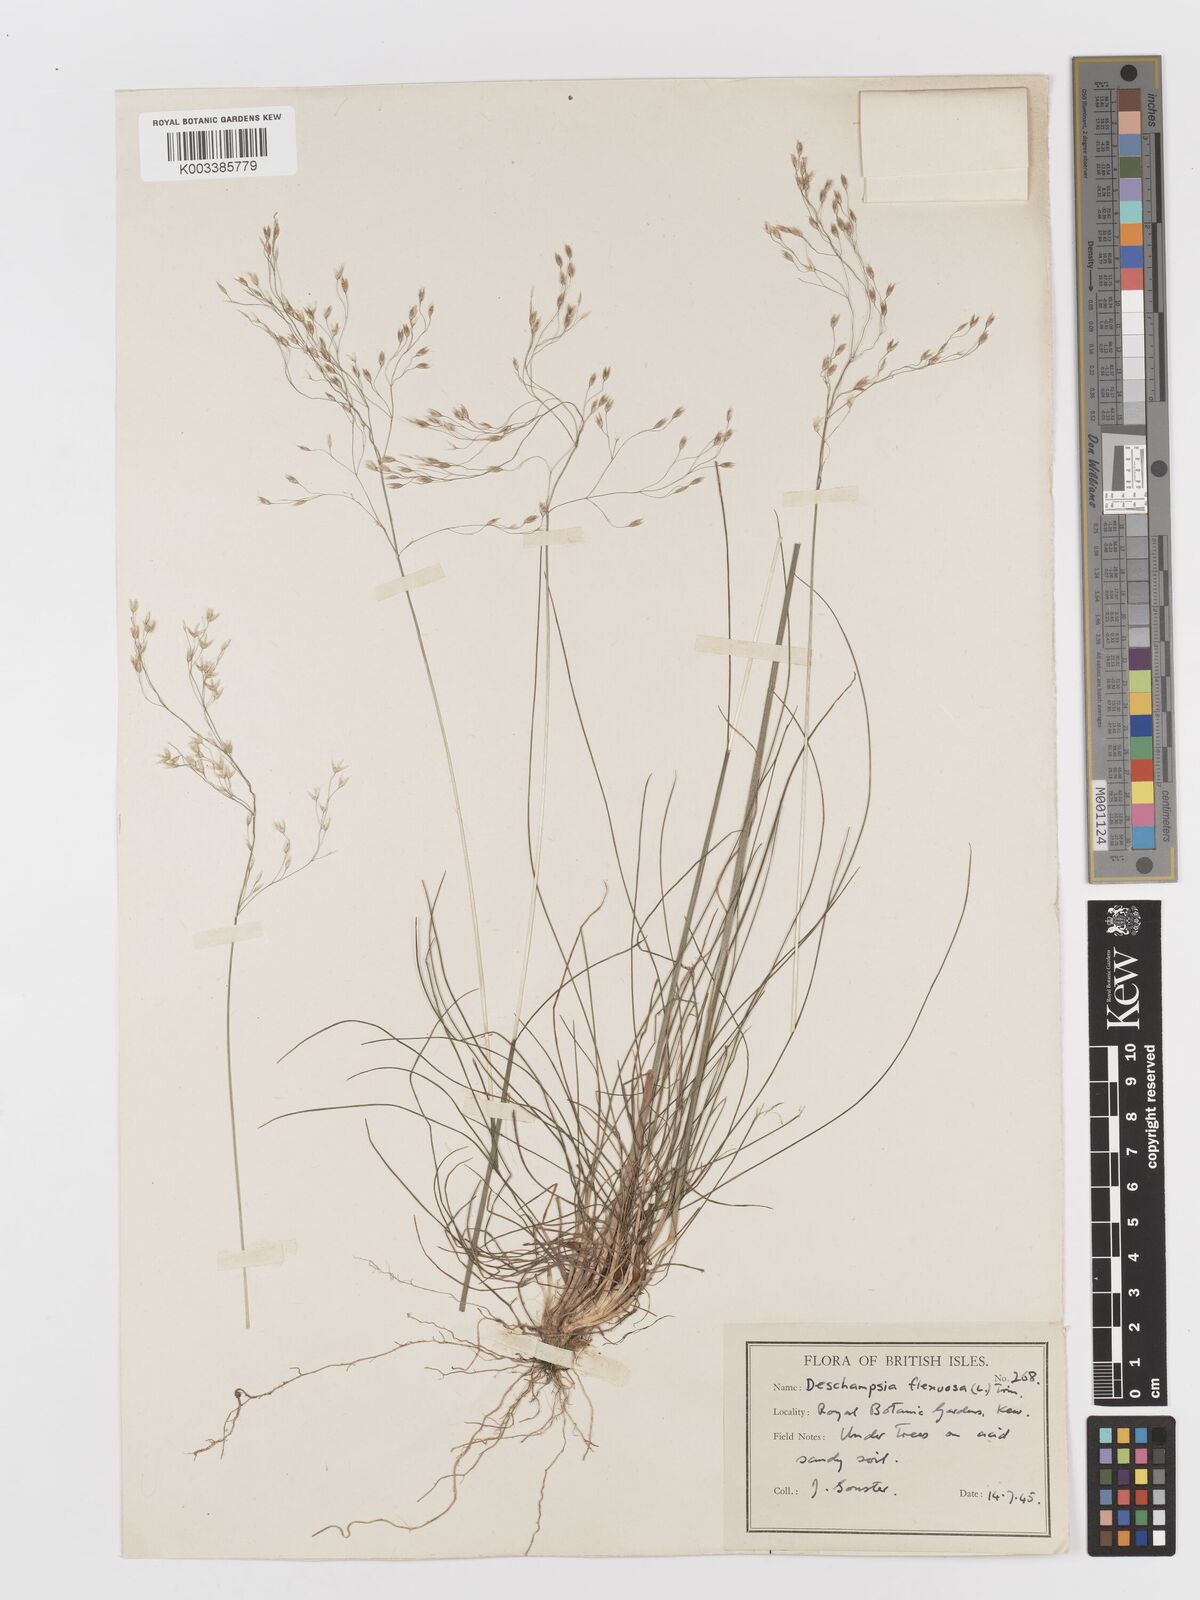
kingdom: Plantae
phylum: Tracheophyta
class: Liliopsida
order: Poales
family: Poaceae
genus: Avenella
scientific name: Avenella flexuosa
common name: Wavy hairgrass
